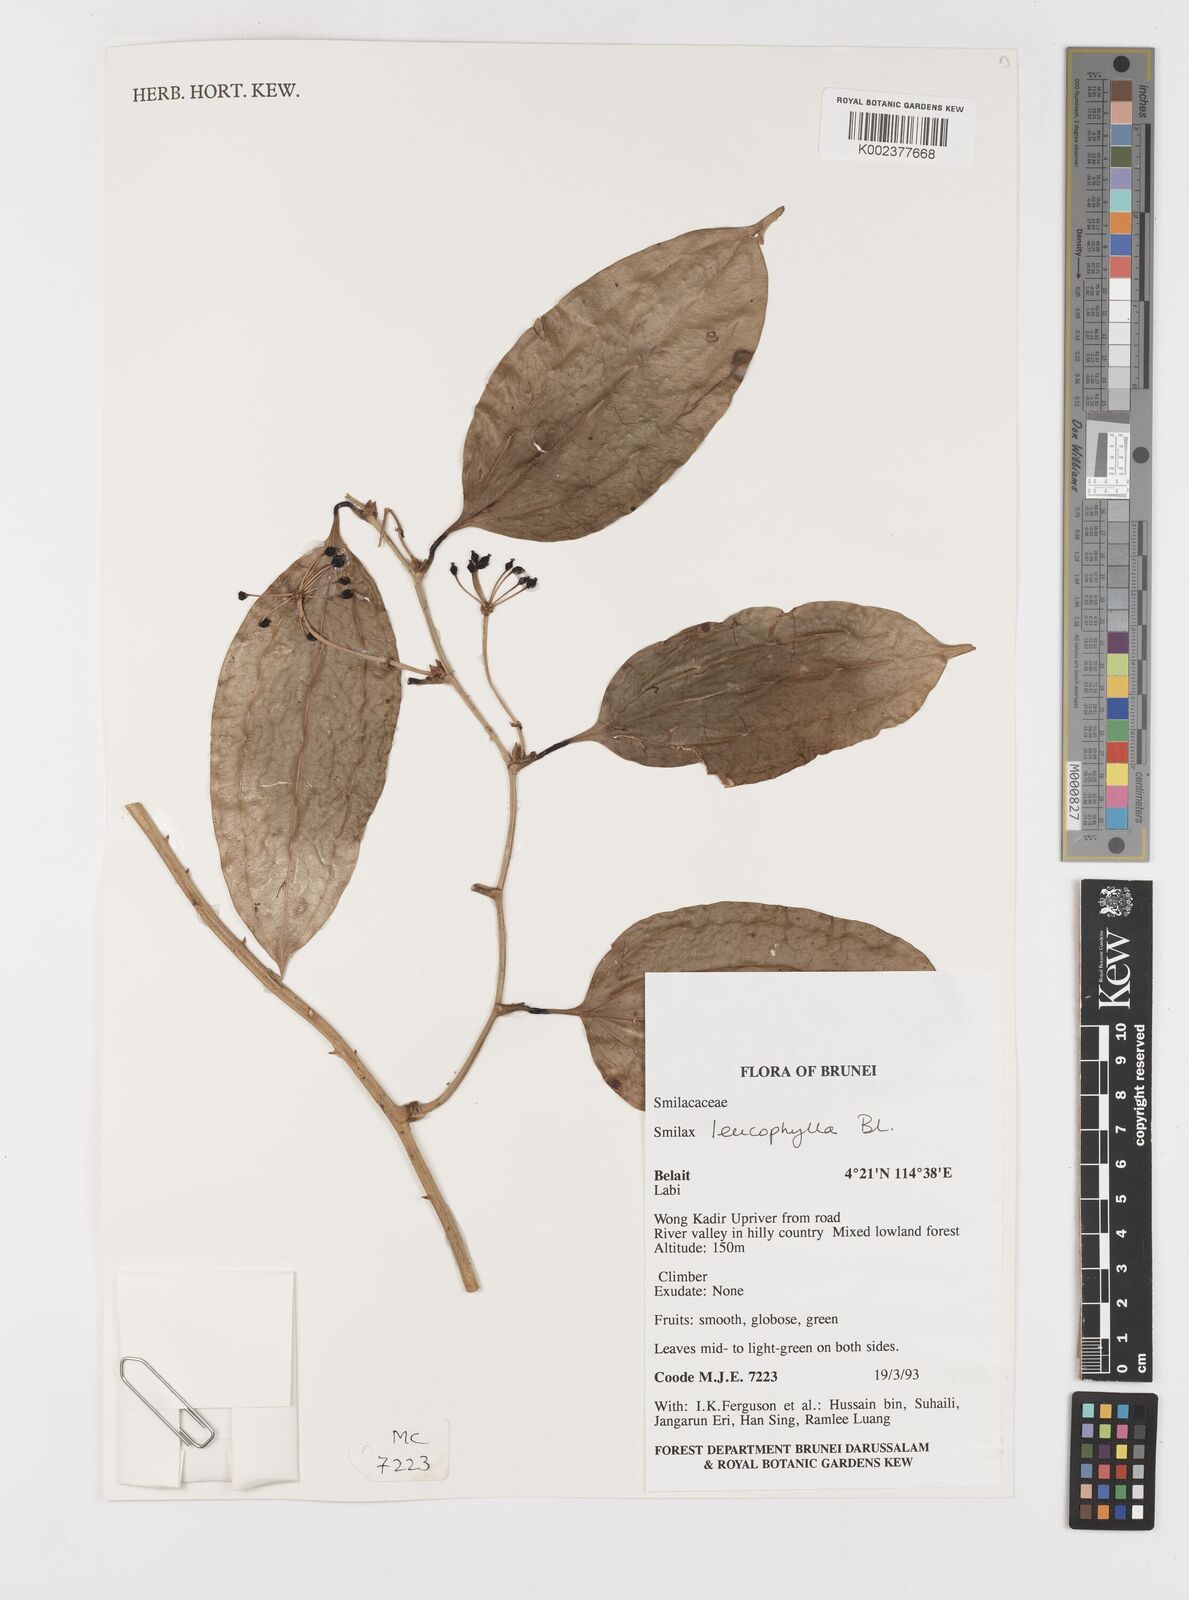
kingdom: Plantae
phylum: Tracheophyta
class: Liliopsida
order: Liliales
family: Smilacaceae
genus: Smilax
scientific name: Smilax leucophylla
